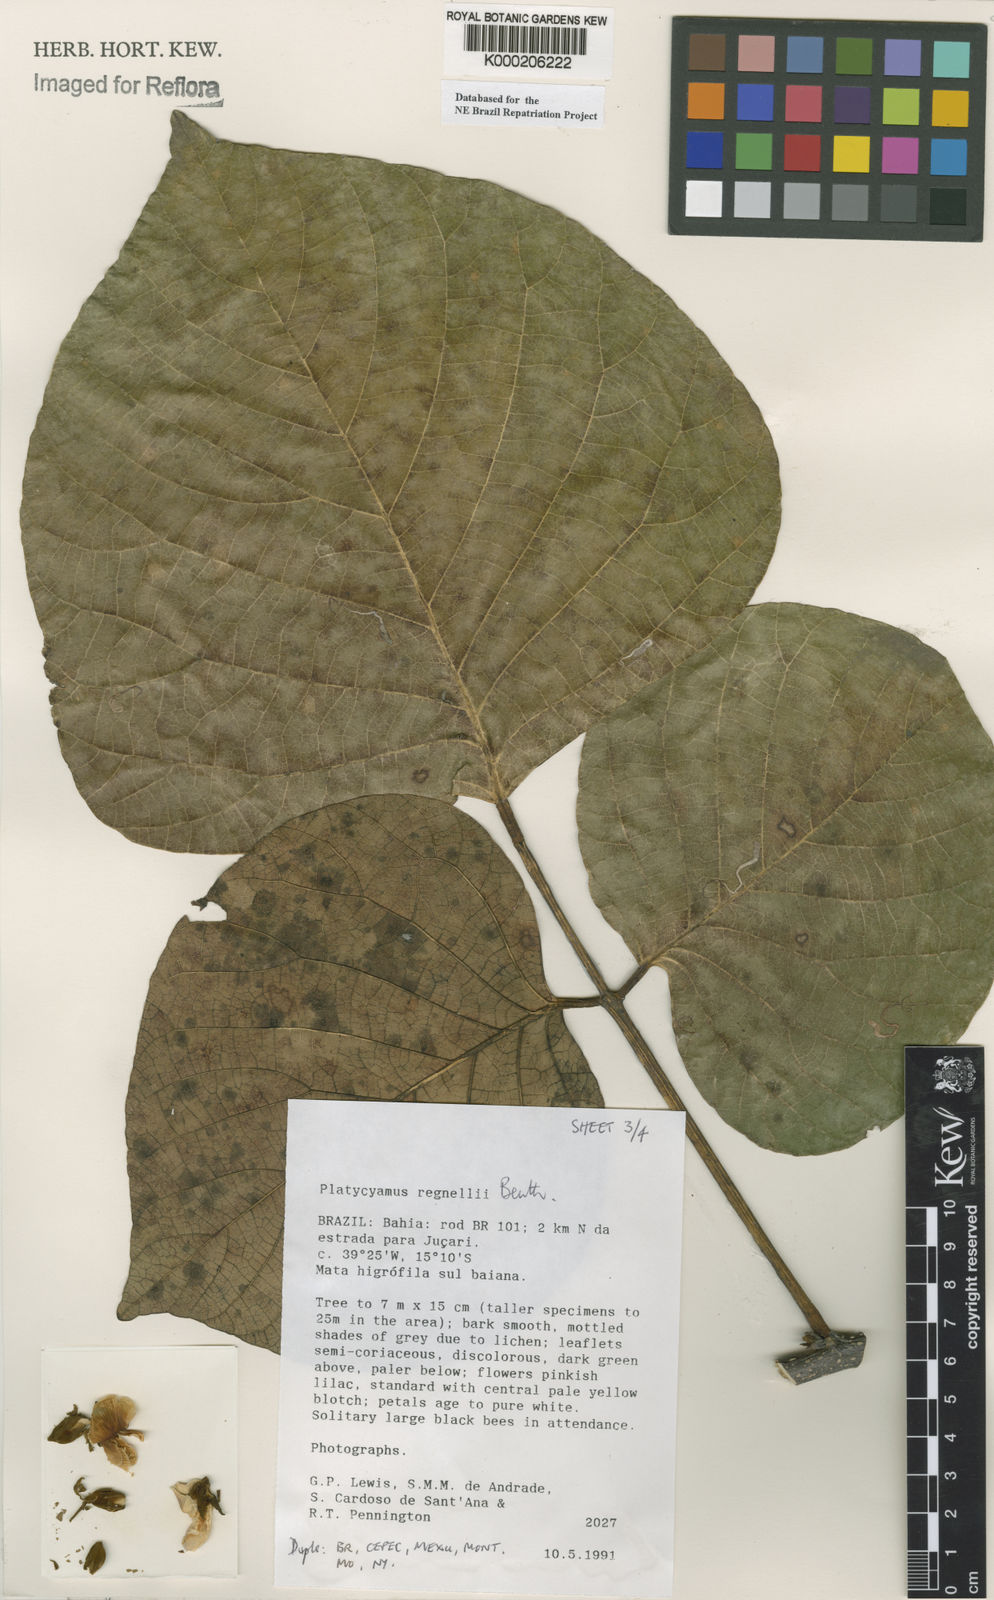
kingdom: Plantae
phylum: Tracheophyta
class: Magnoliopsida
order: Fabales
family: Fabaceae
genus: Platycyamus
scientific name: Platycyamus regnellii
